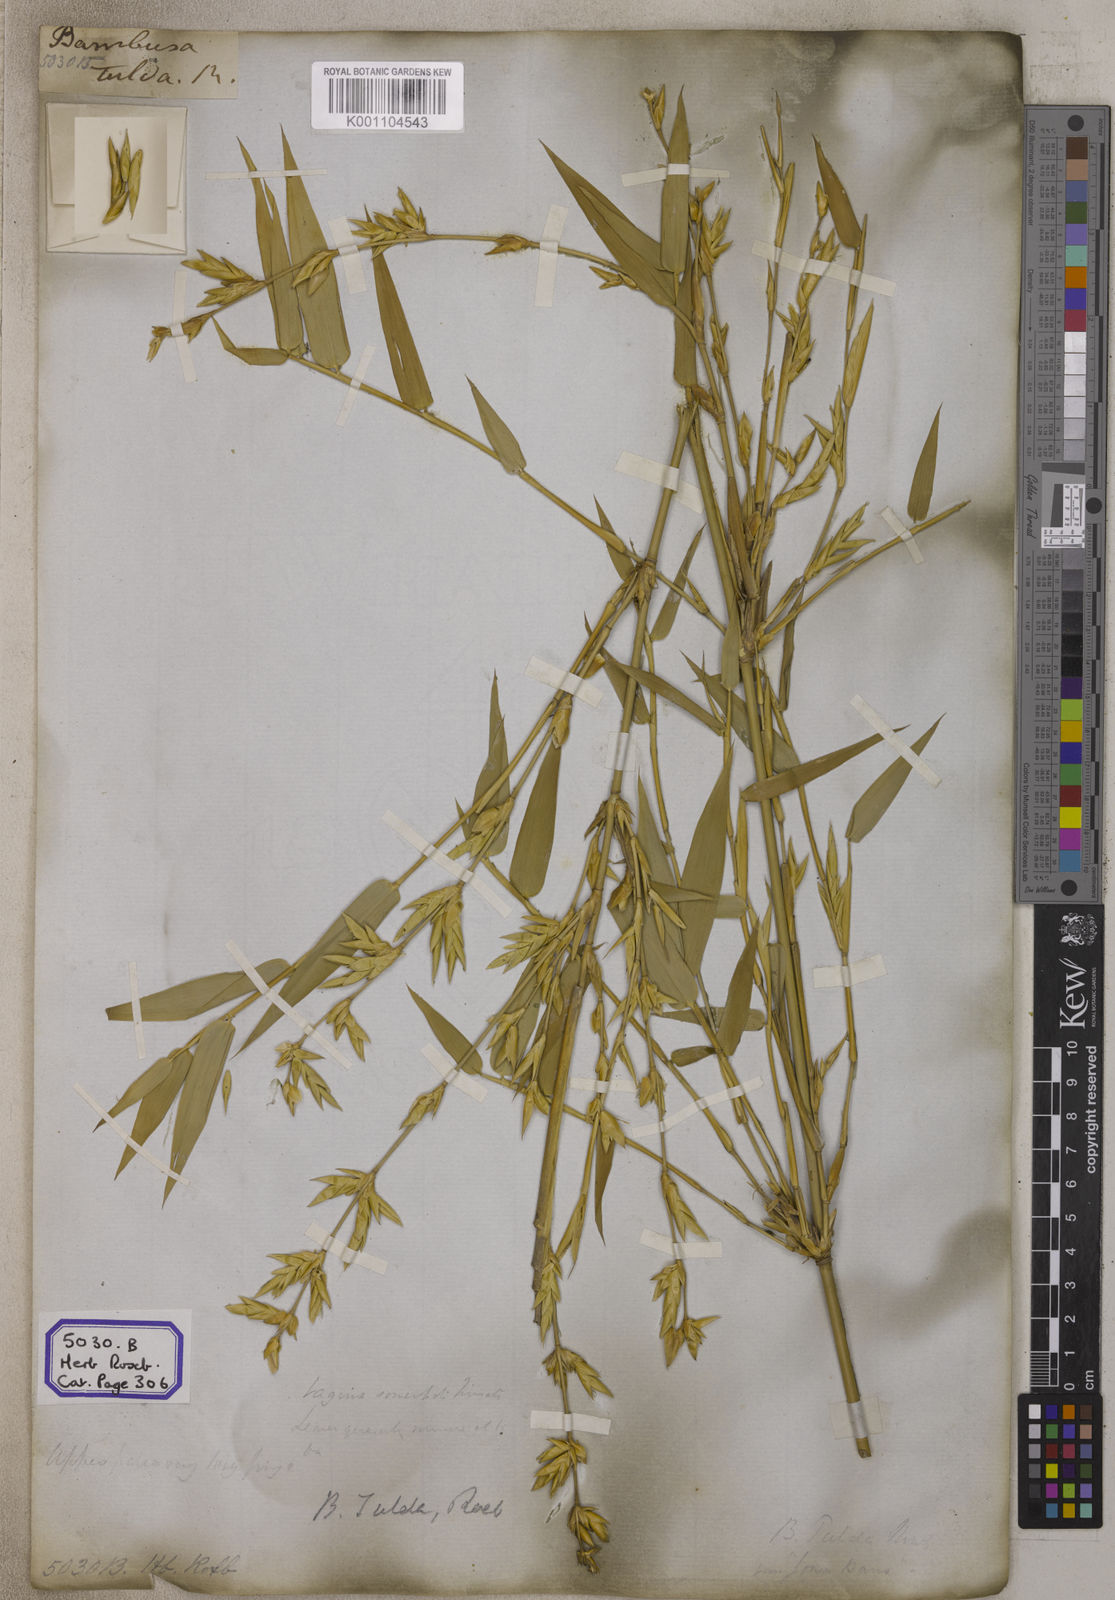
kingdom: Plantae
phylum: Tracheophyta
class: Liliopsida
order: Poales
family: Poaceae
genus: Bambusa
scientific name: Bambusa
